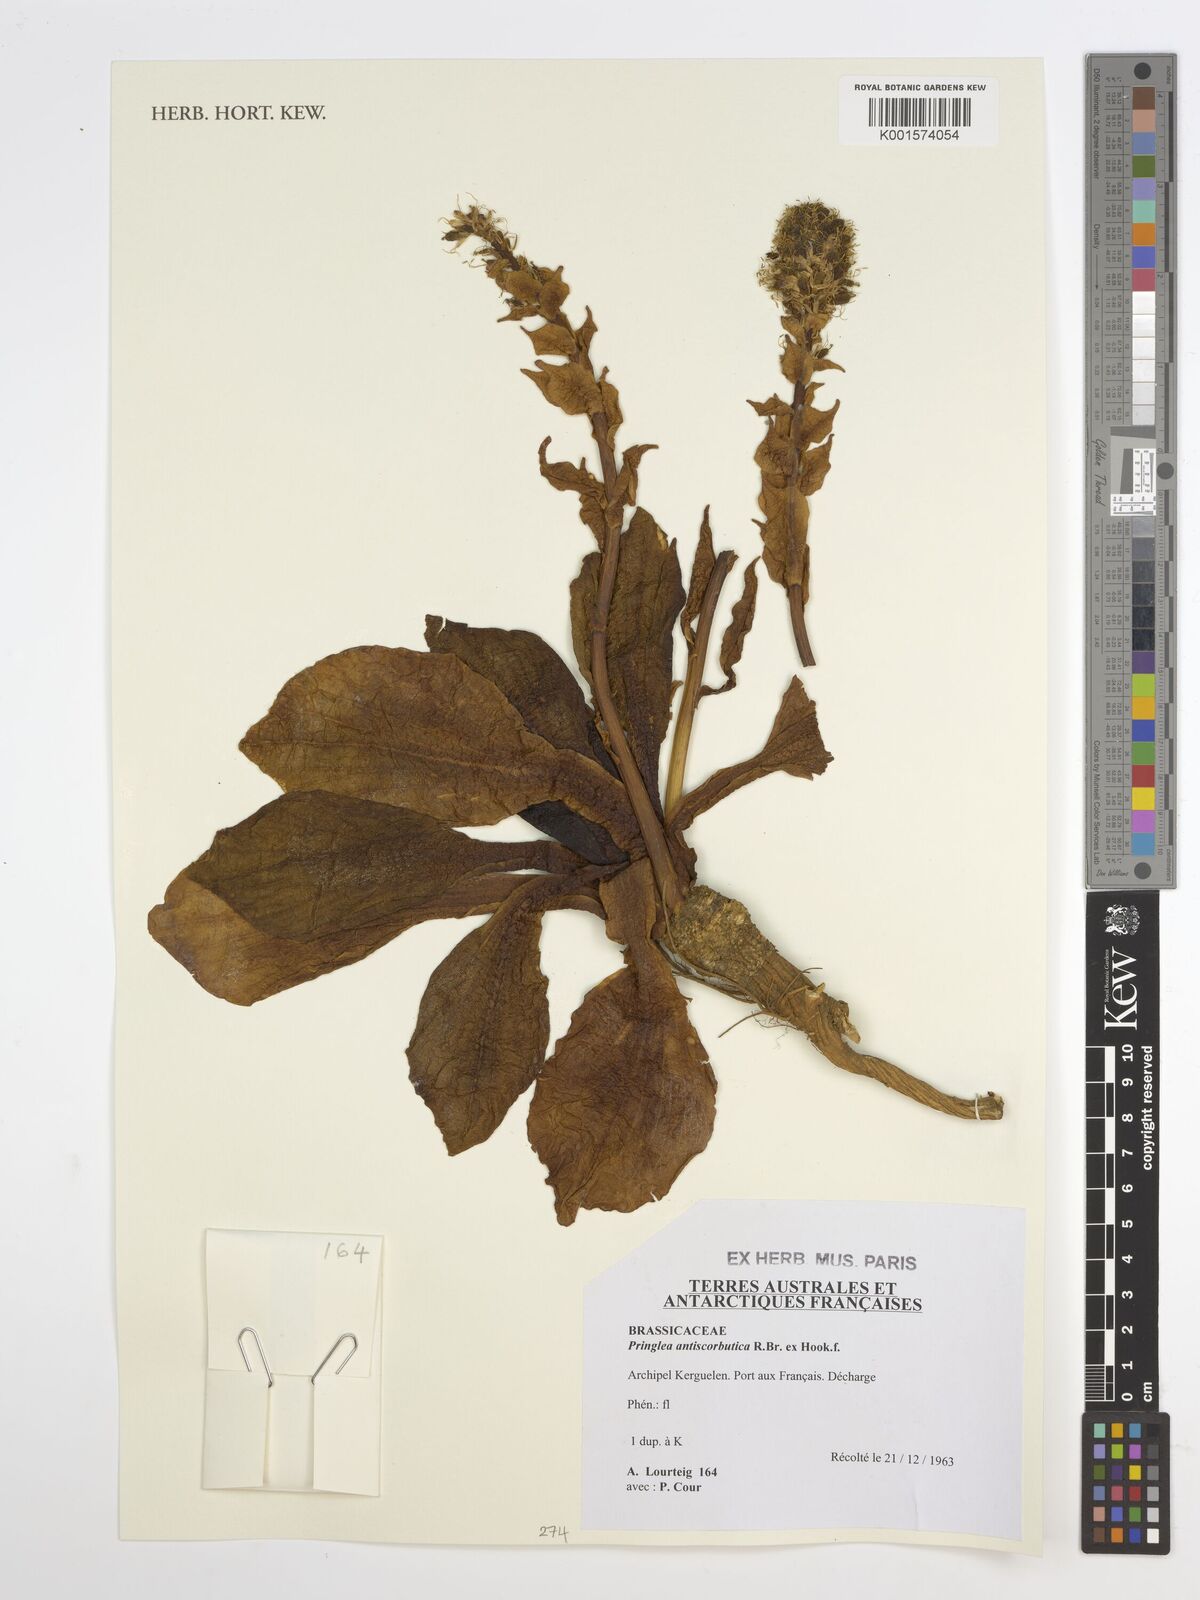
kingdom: Plantae
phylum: Tracheophyta
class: Magnoliopsida
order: Brassicales
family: Brassicaceae
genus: Pringlea
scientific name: Pringlea antiscorbutica
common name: Kerguelen-cabbage
